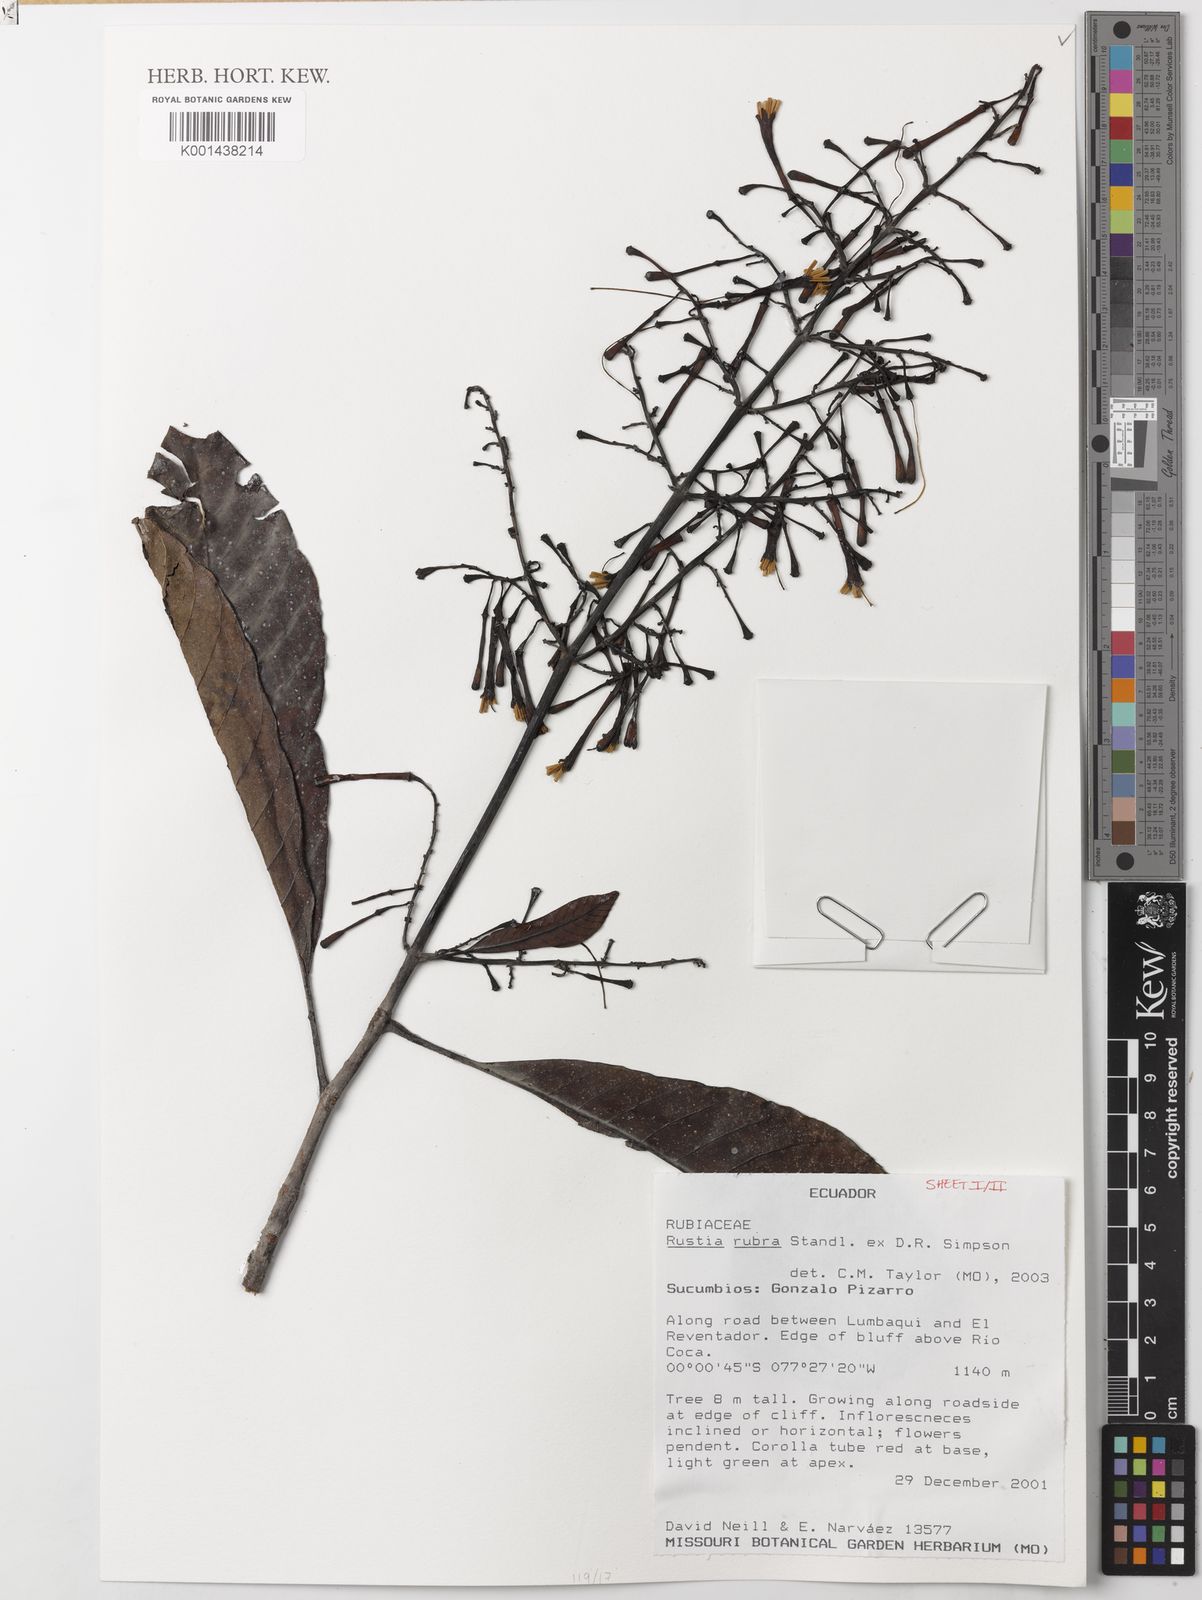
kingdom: Plantae
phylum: Tracheophyta
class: Magnoliopsida
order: Gentianales
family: Rubiaceae
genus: Rustia
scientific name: Rustia rubra
